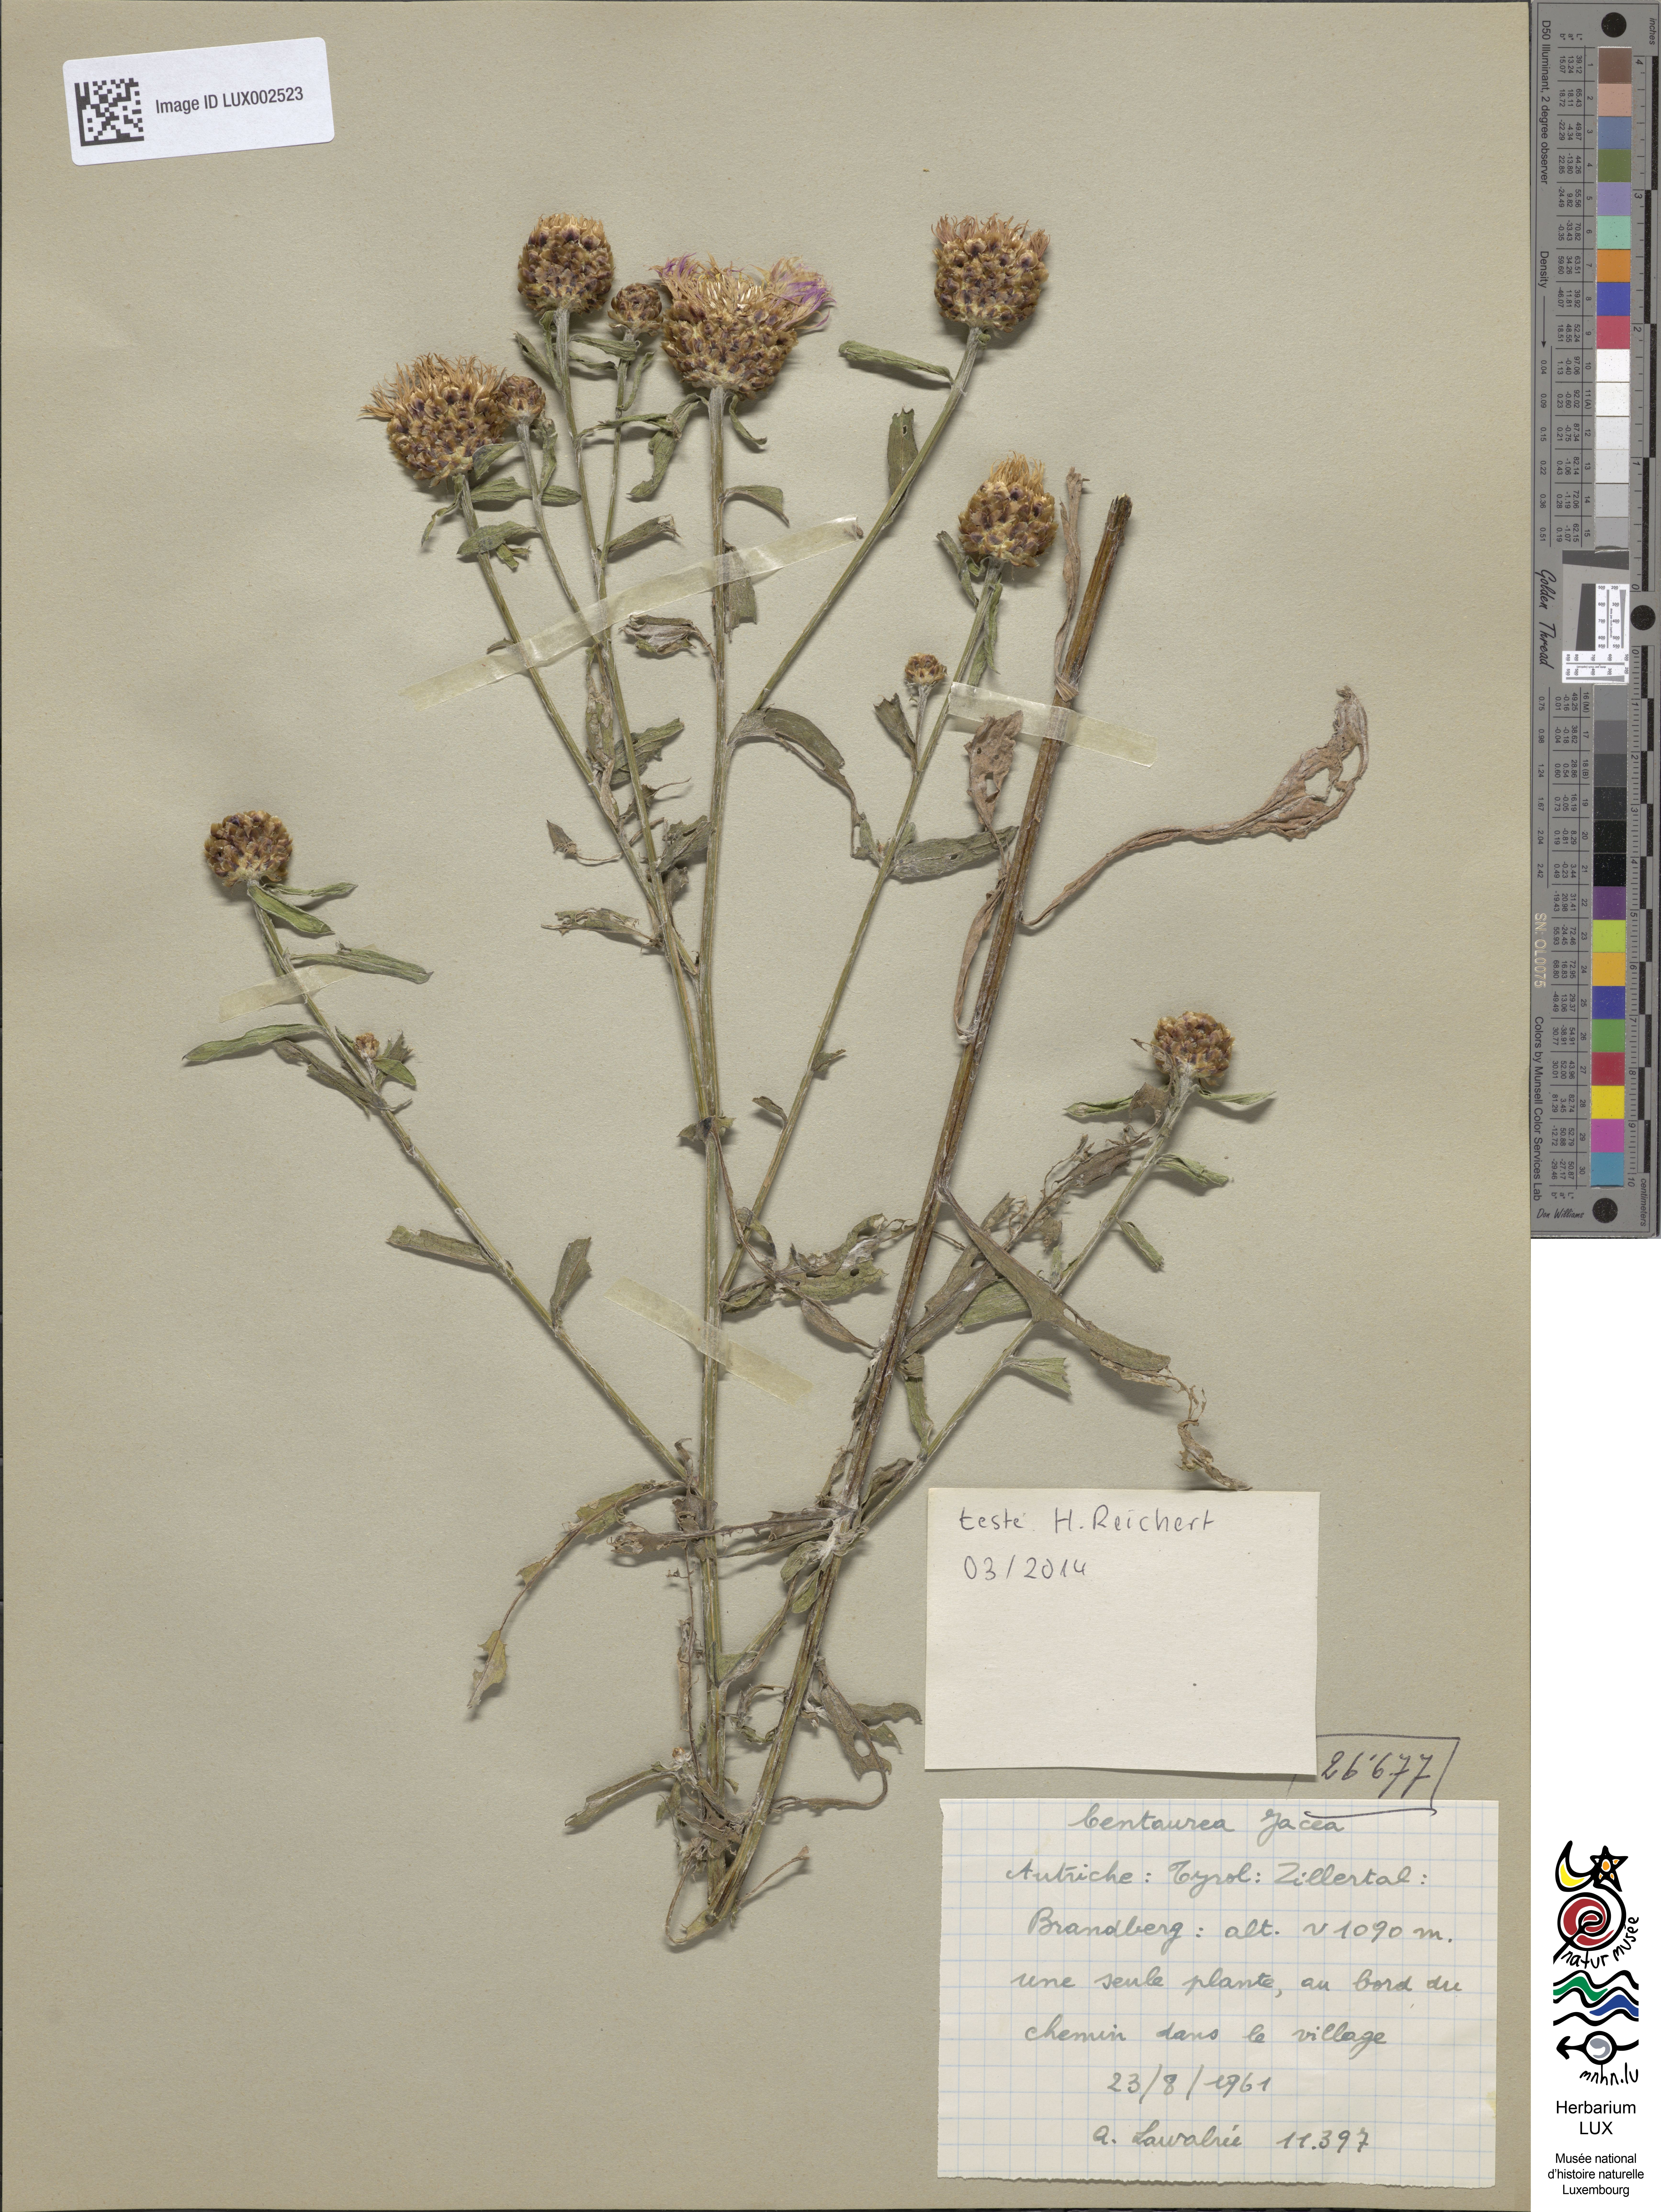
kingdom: Plantae
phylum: Tracheophyta
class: Magnoliopsida
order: Asterales
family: Asteraceae
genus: Centaurea
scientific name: Centaurea jacea
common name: Brown knapweed
